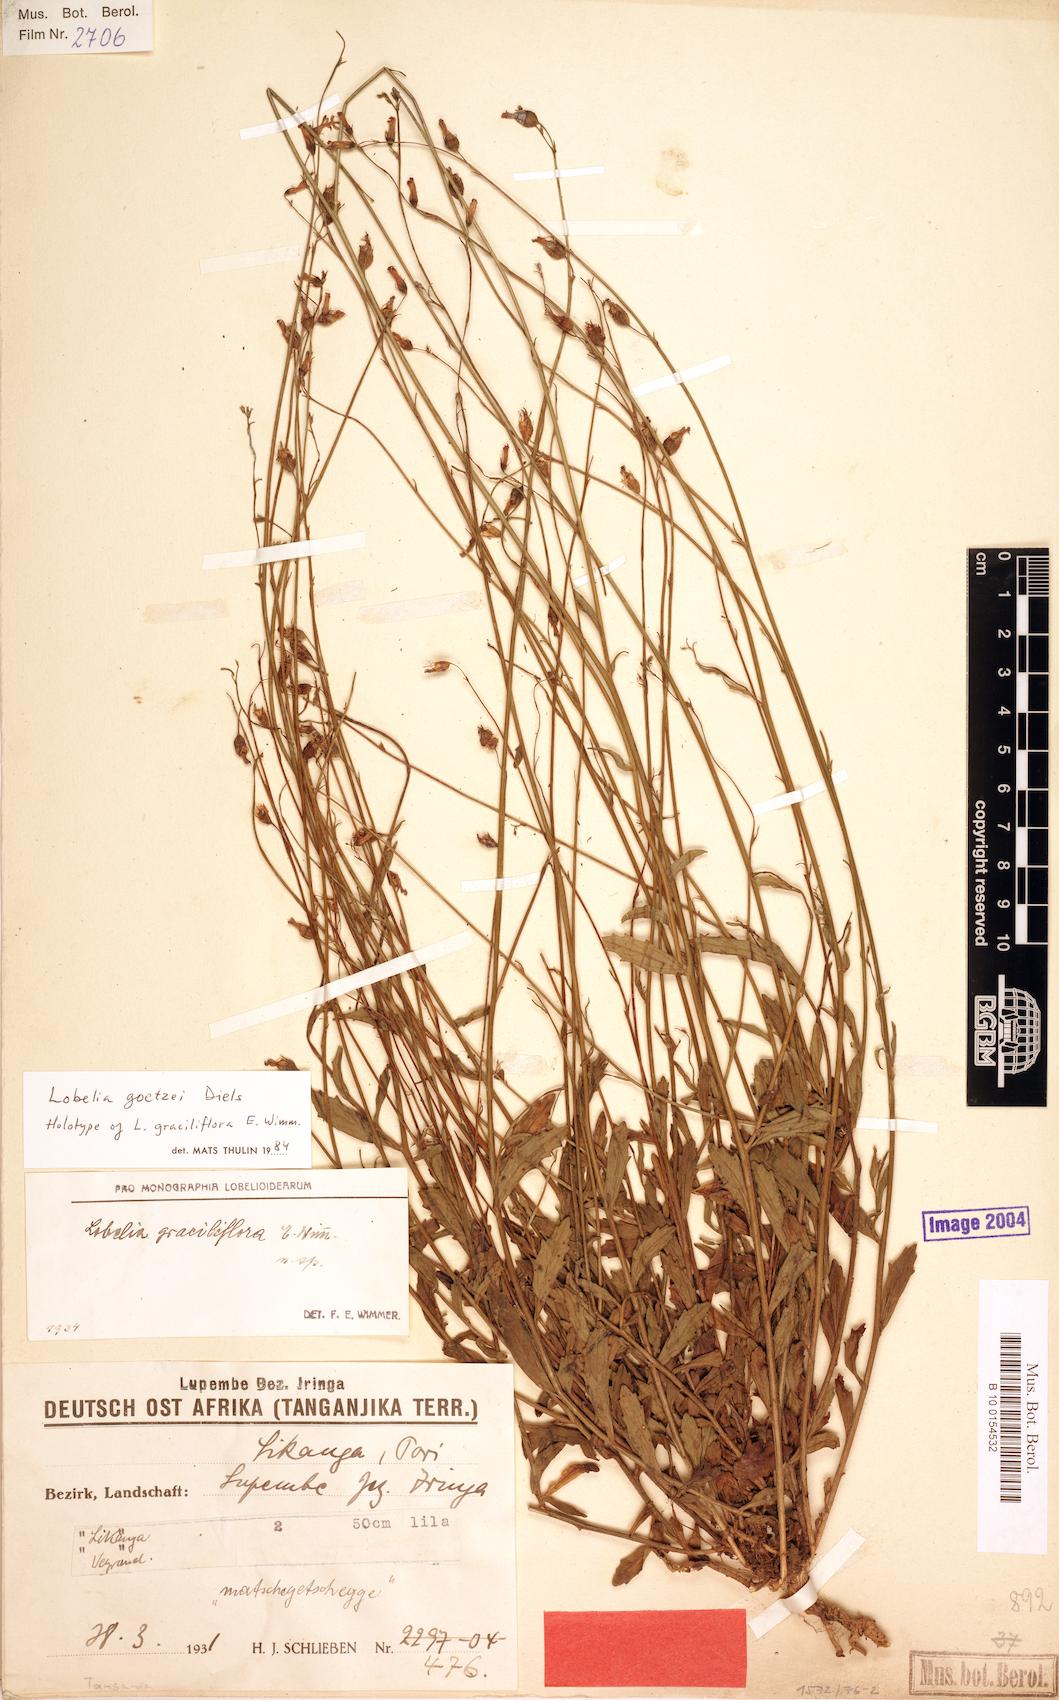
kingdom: Plantae
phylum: Tracheophyta
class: Magnoliopsida
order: Asterales
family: Campanulaceae
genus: Lobelia
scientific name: Lobelia goetzei
